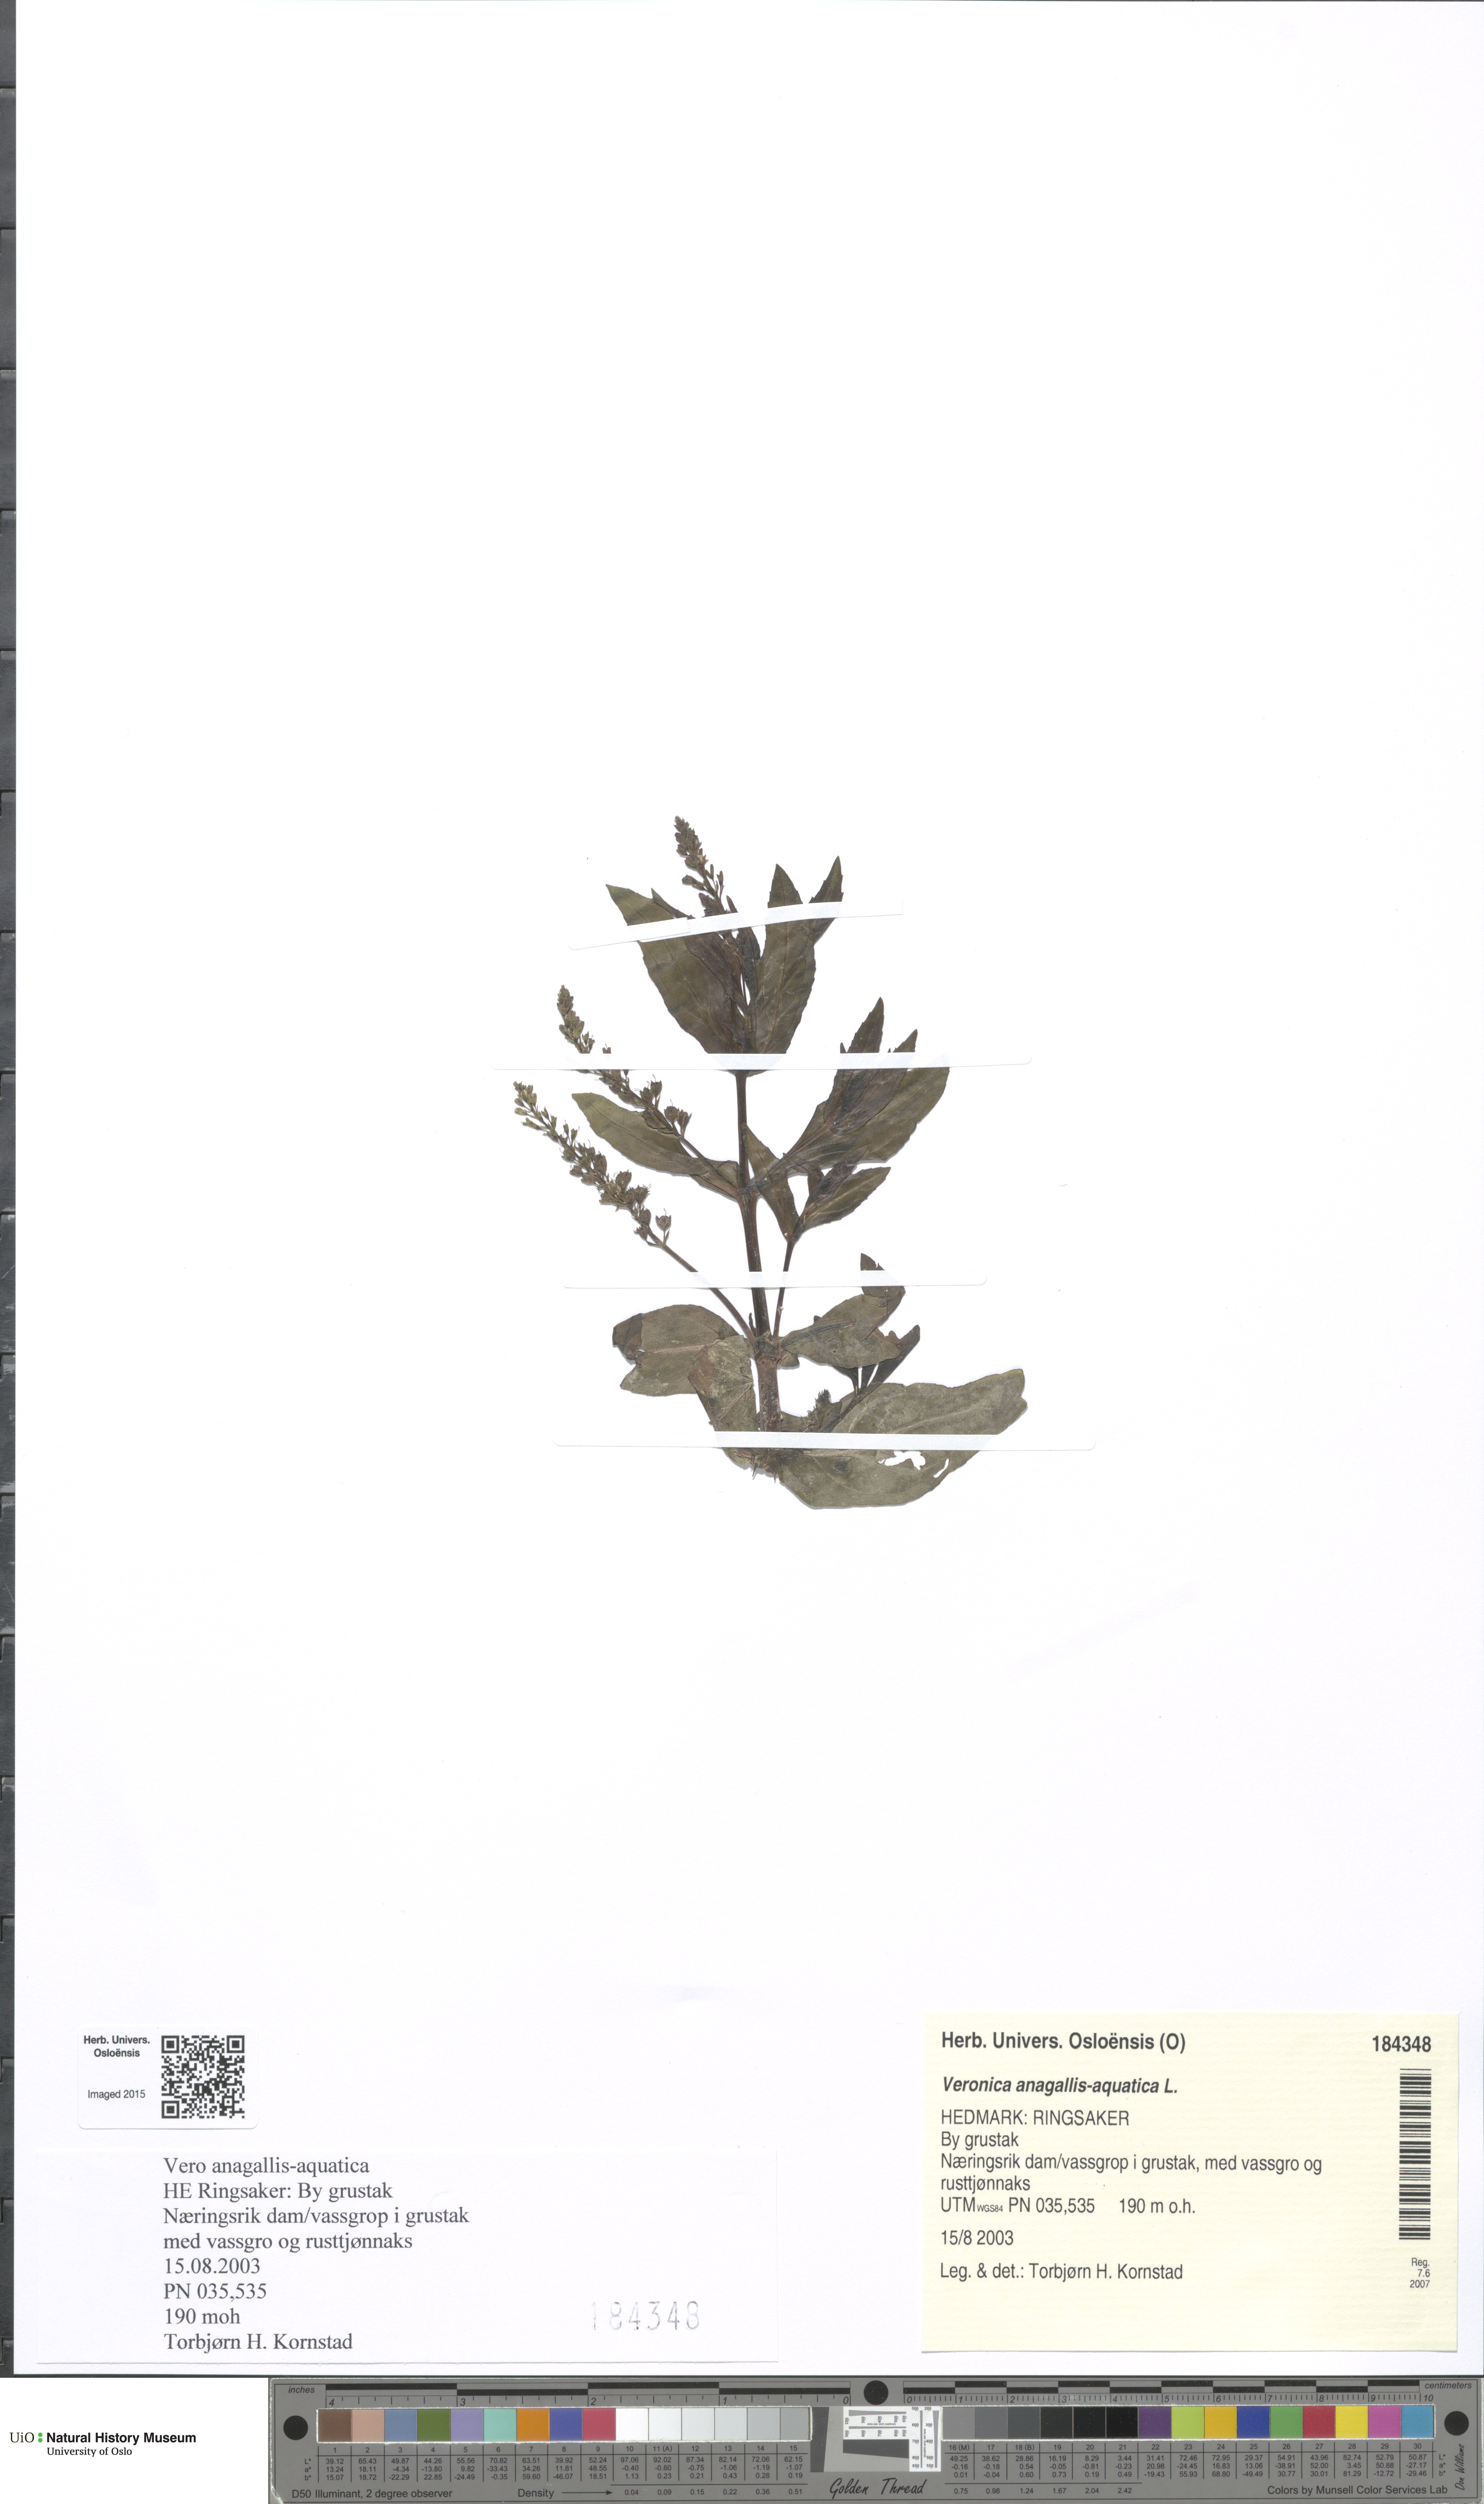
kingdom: Plantae
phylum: Tracheophyta
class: Magnoliopsida
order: Lamiales
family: Plantaginaceae
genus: Veronica
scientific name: Veronica anagallis-aquatica
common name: Water speedwell
